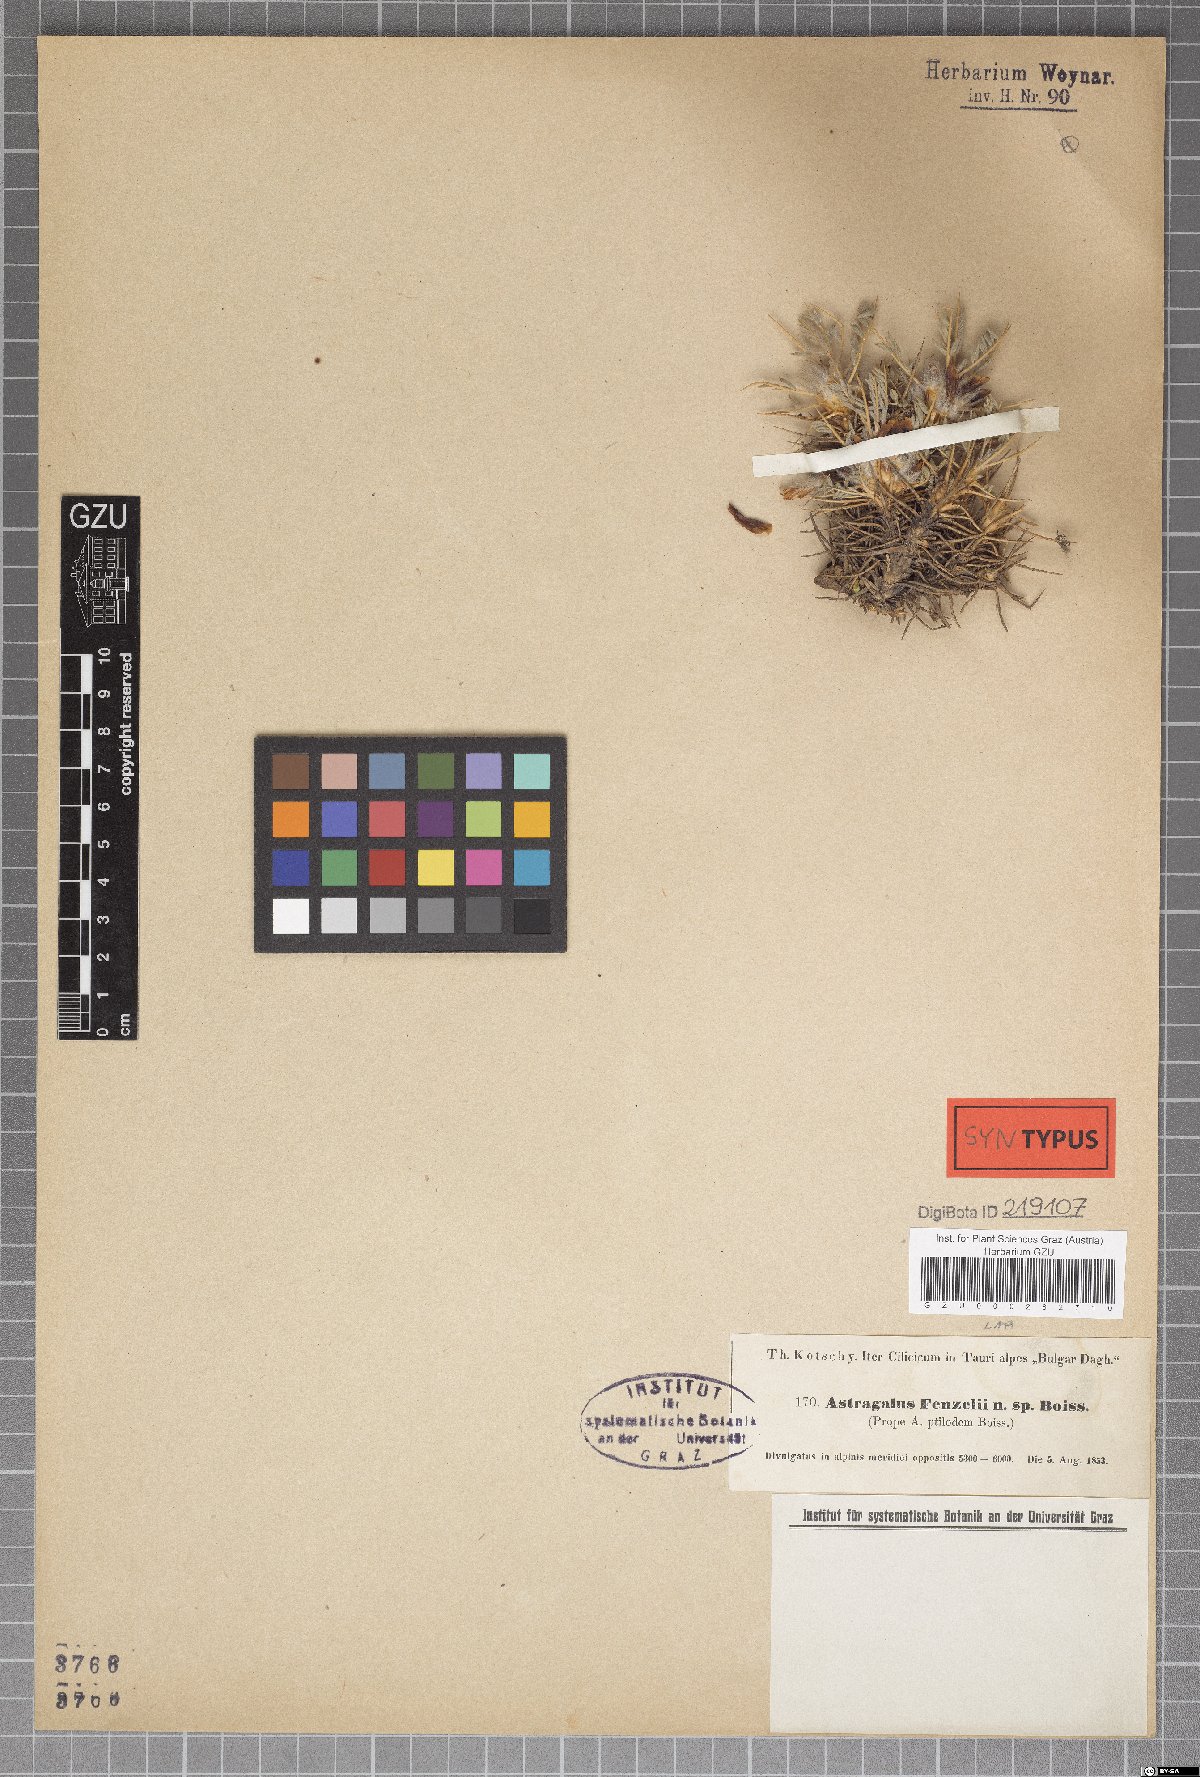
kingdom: Plantae
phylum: Tracheophyta
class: Magnoliopsida
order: Fabales
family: Fabaceae
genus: Astragalus
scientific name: Astragalus plumosus
